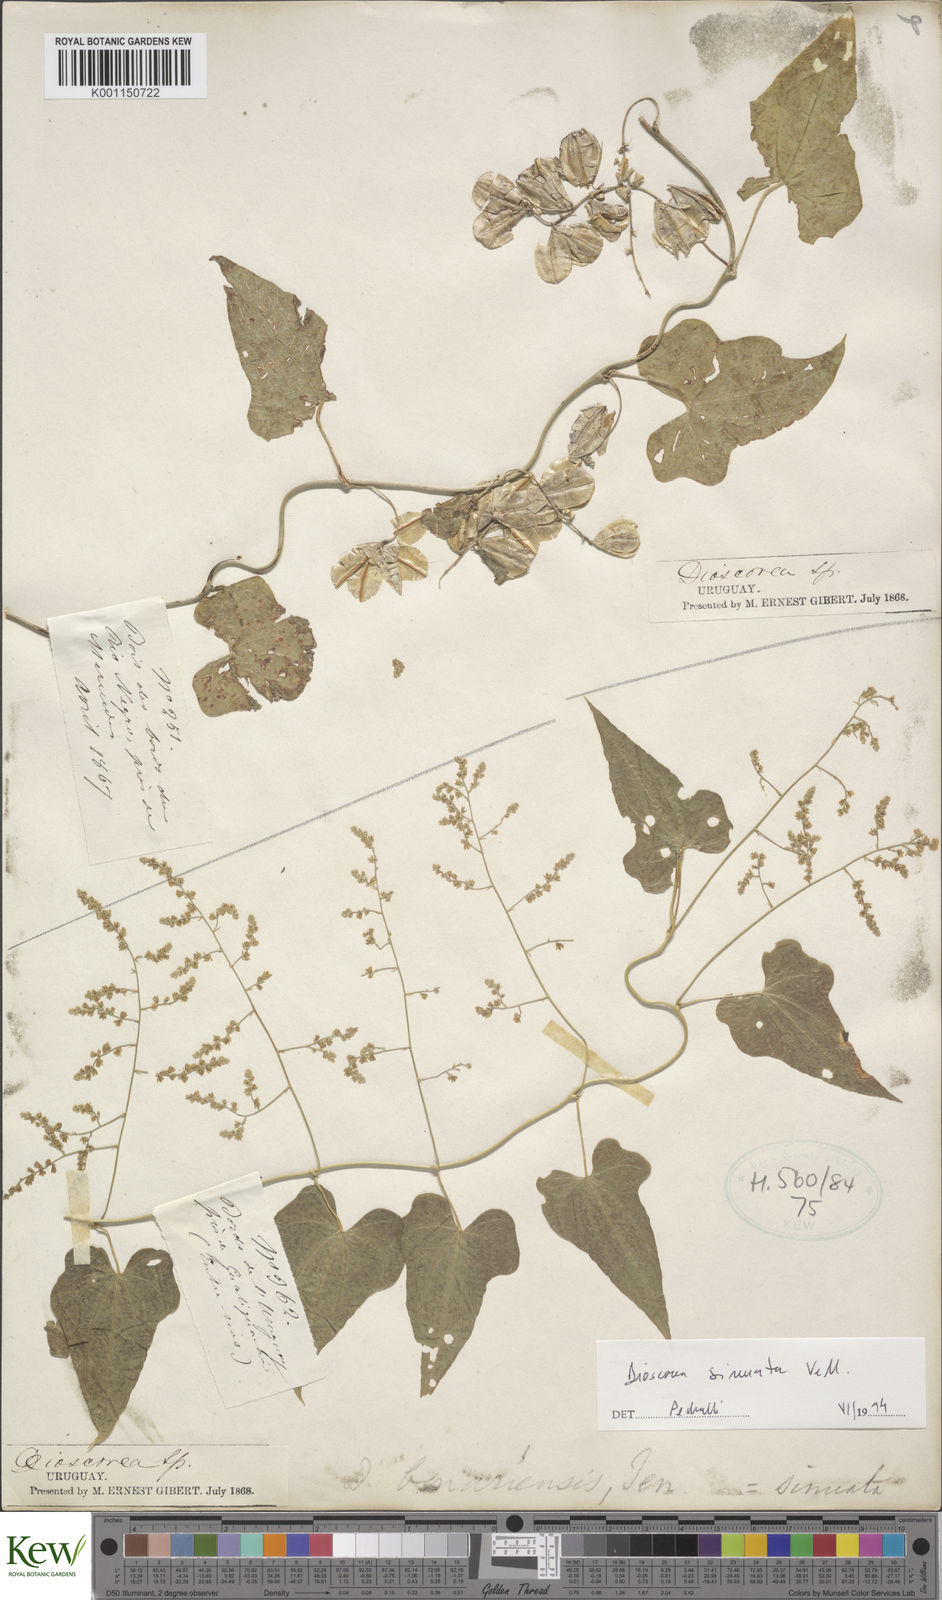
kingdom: Plantae
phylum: Tracheophyta
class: Liliopsida
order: Dioscoreales
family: Dioscoreaceae
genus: Dioscorea
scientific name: Dioscorea sinuata
